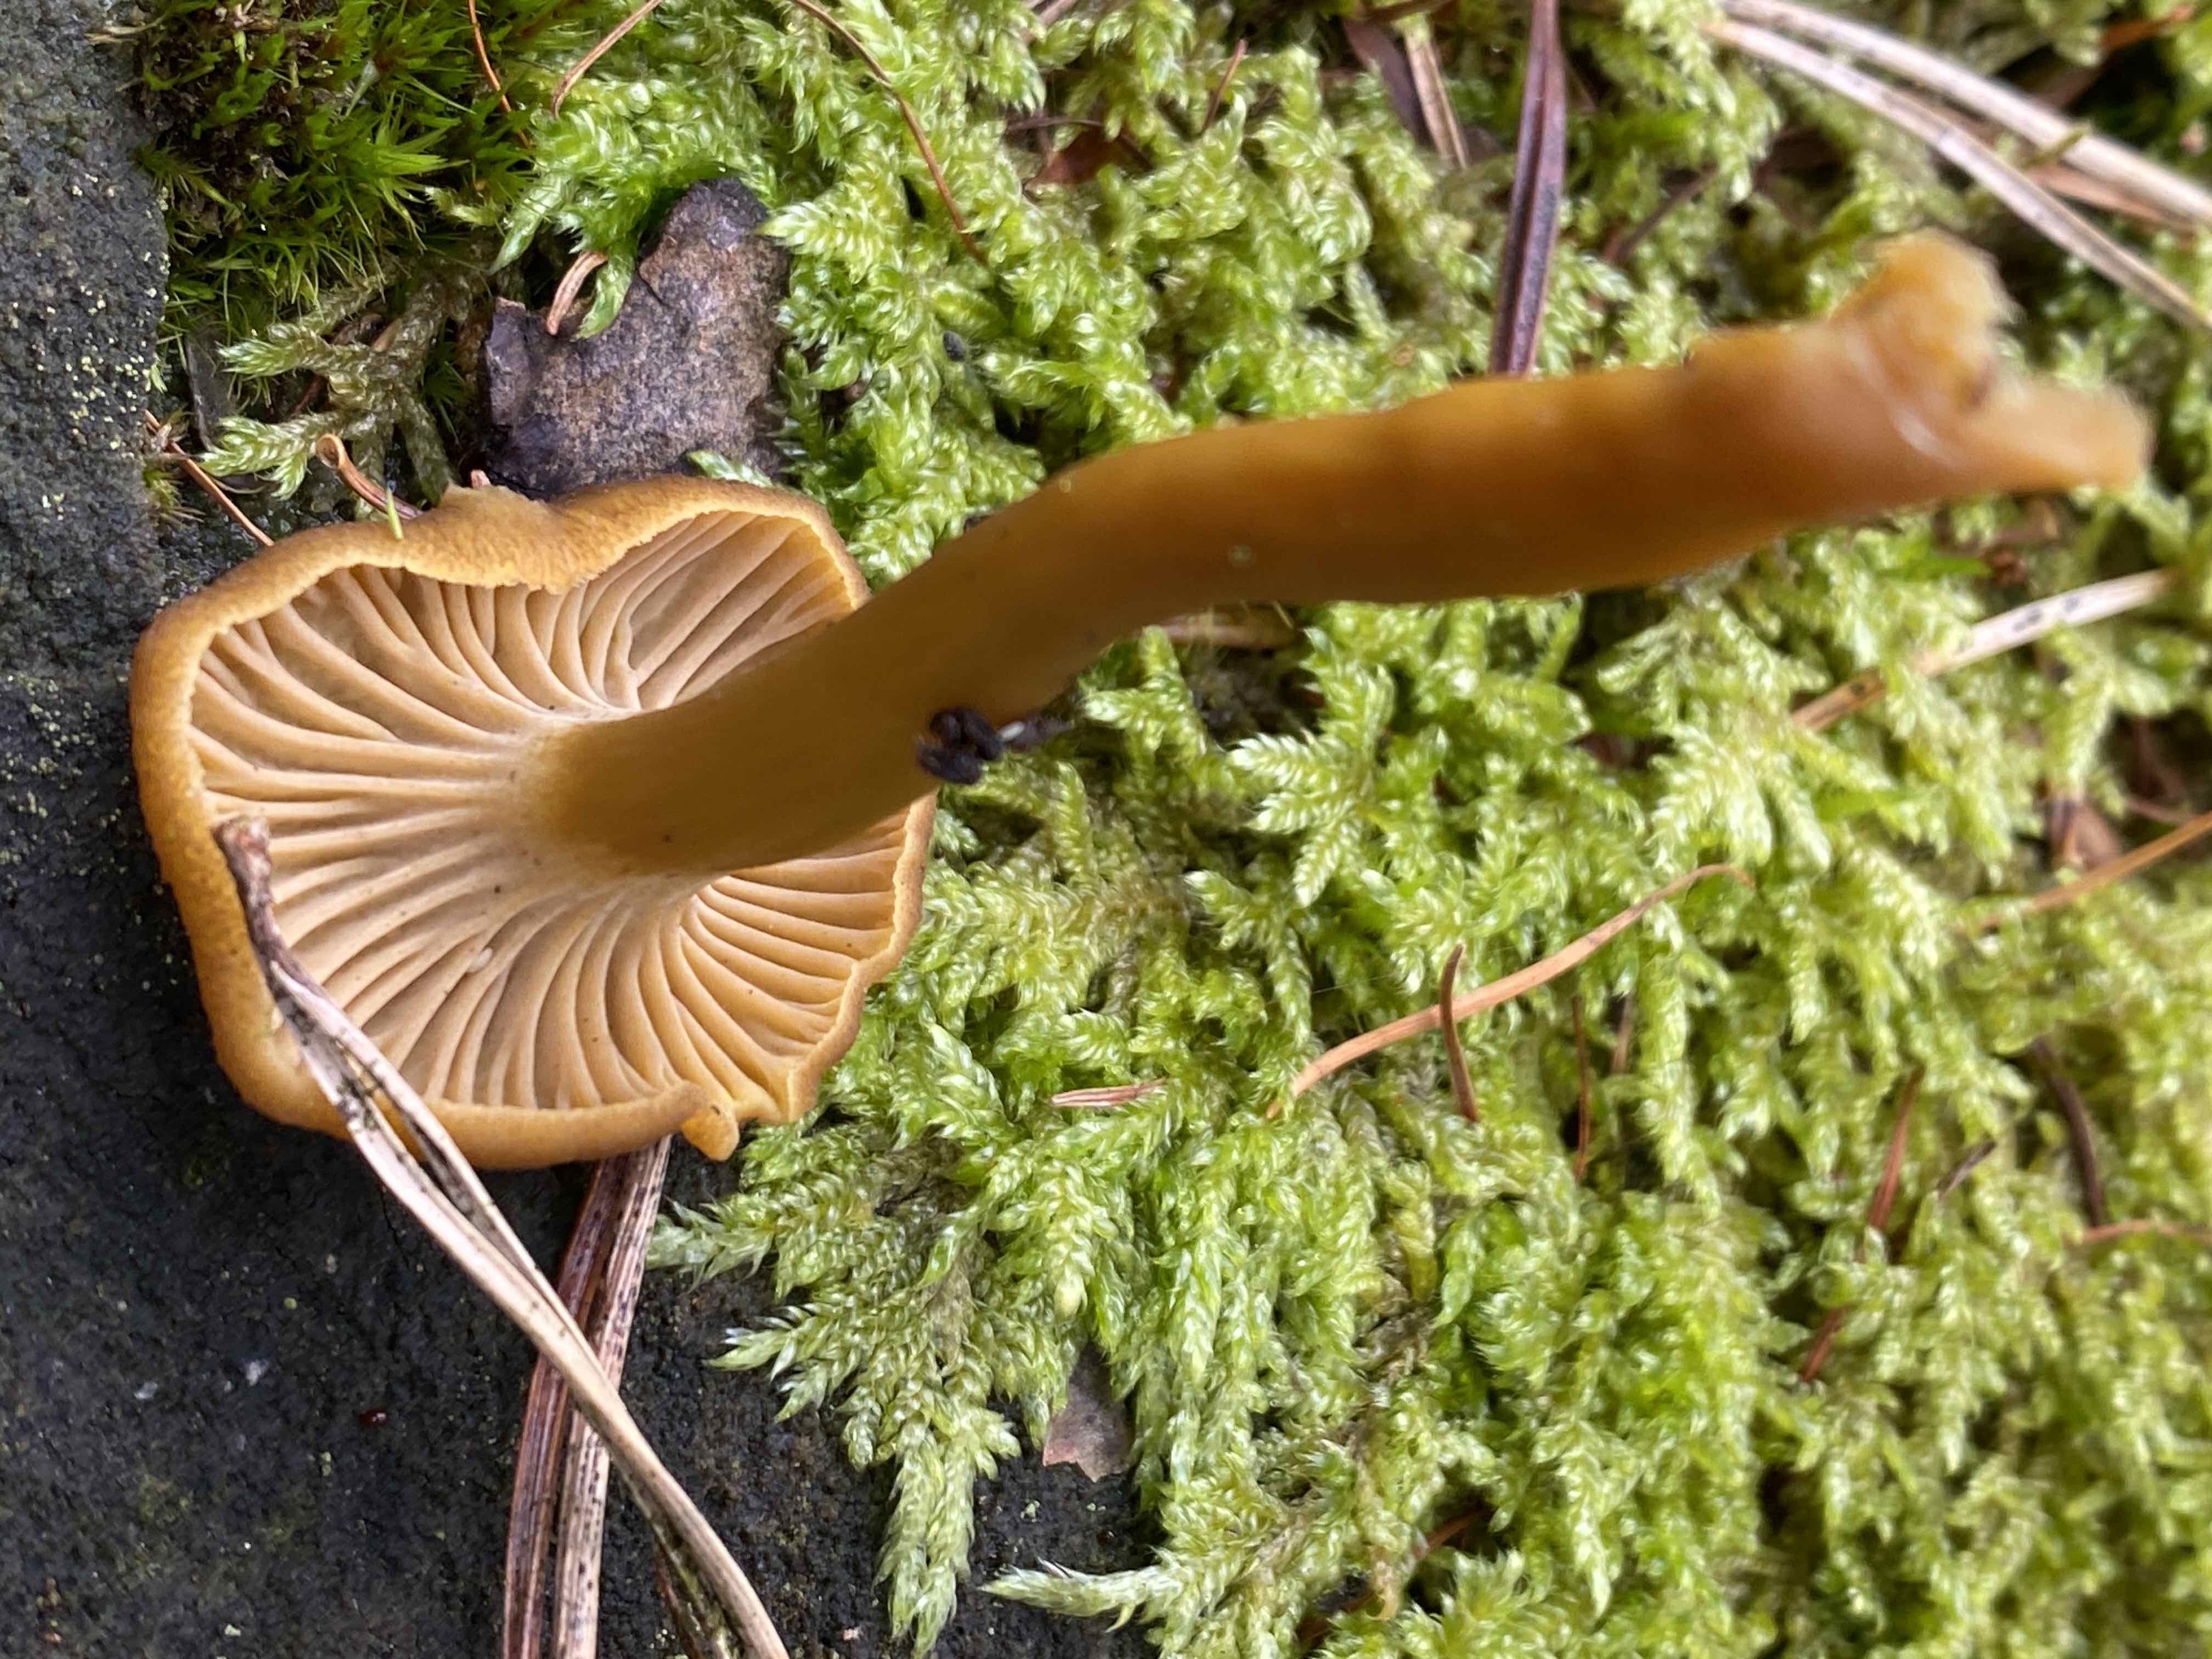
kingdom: Fungi
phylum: Basidiomycota
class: Agaricomycetes
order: Cantharellales
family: Hydnaceae
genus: Craterellus
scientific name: Craterellus tubaeformis
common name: tragt-kantarel
